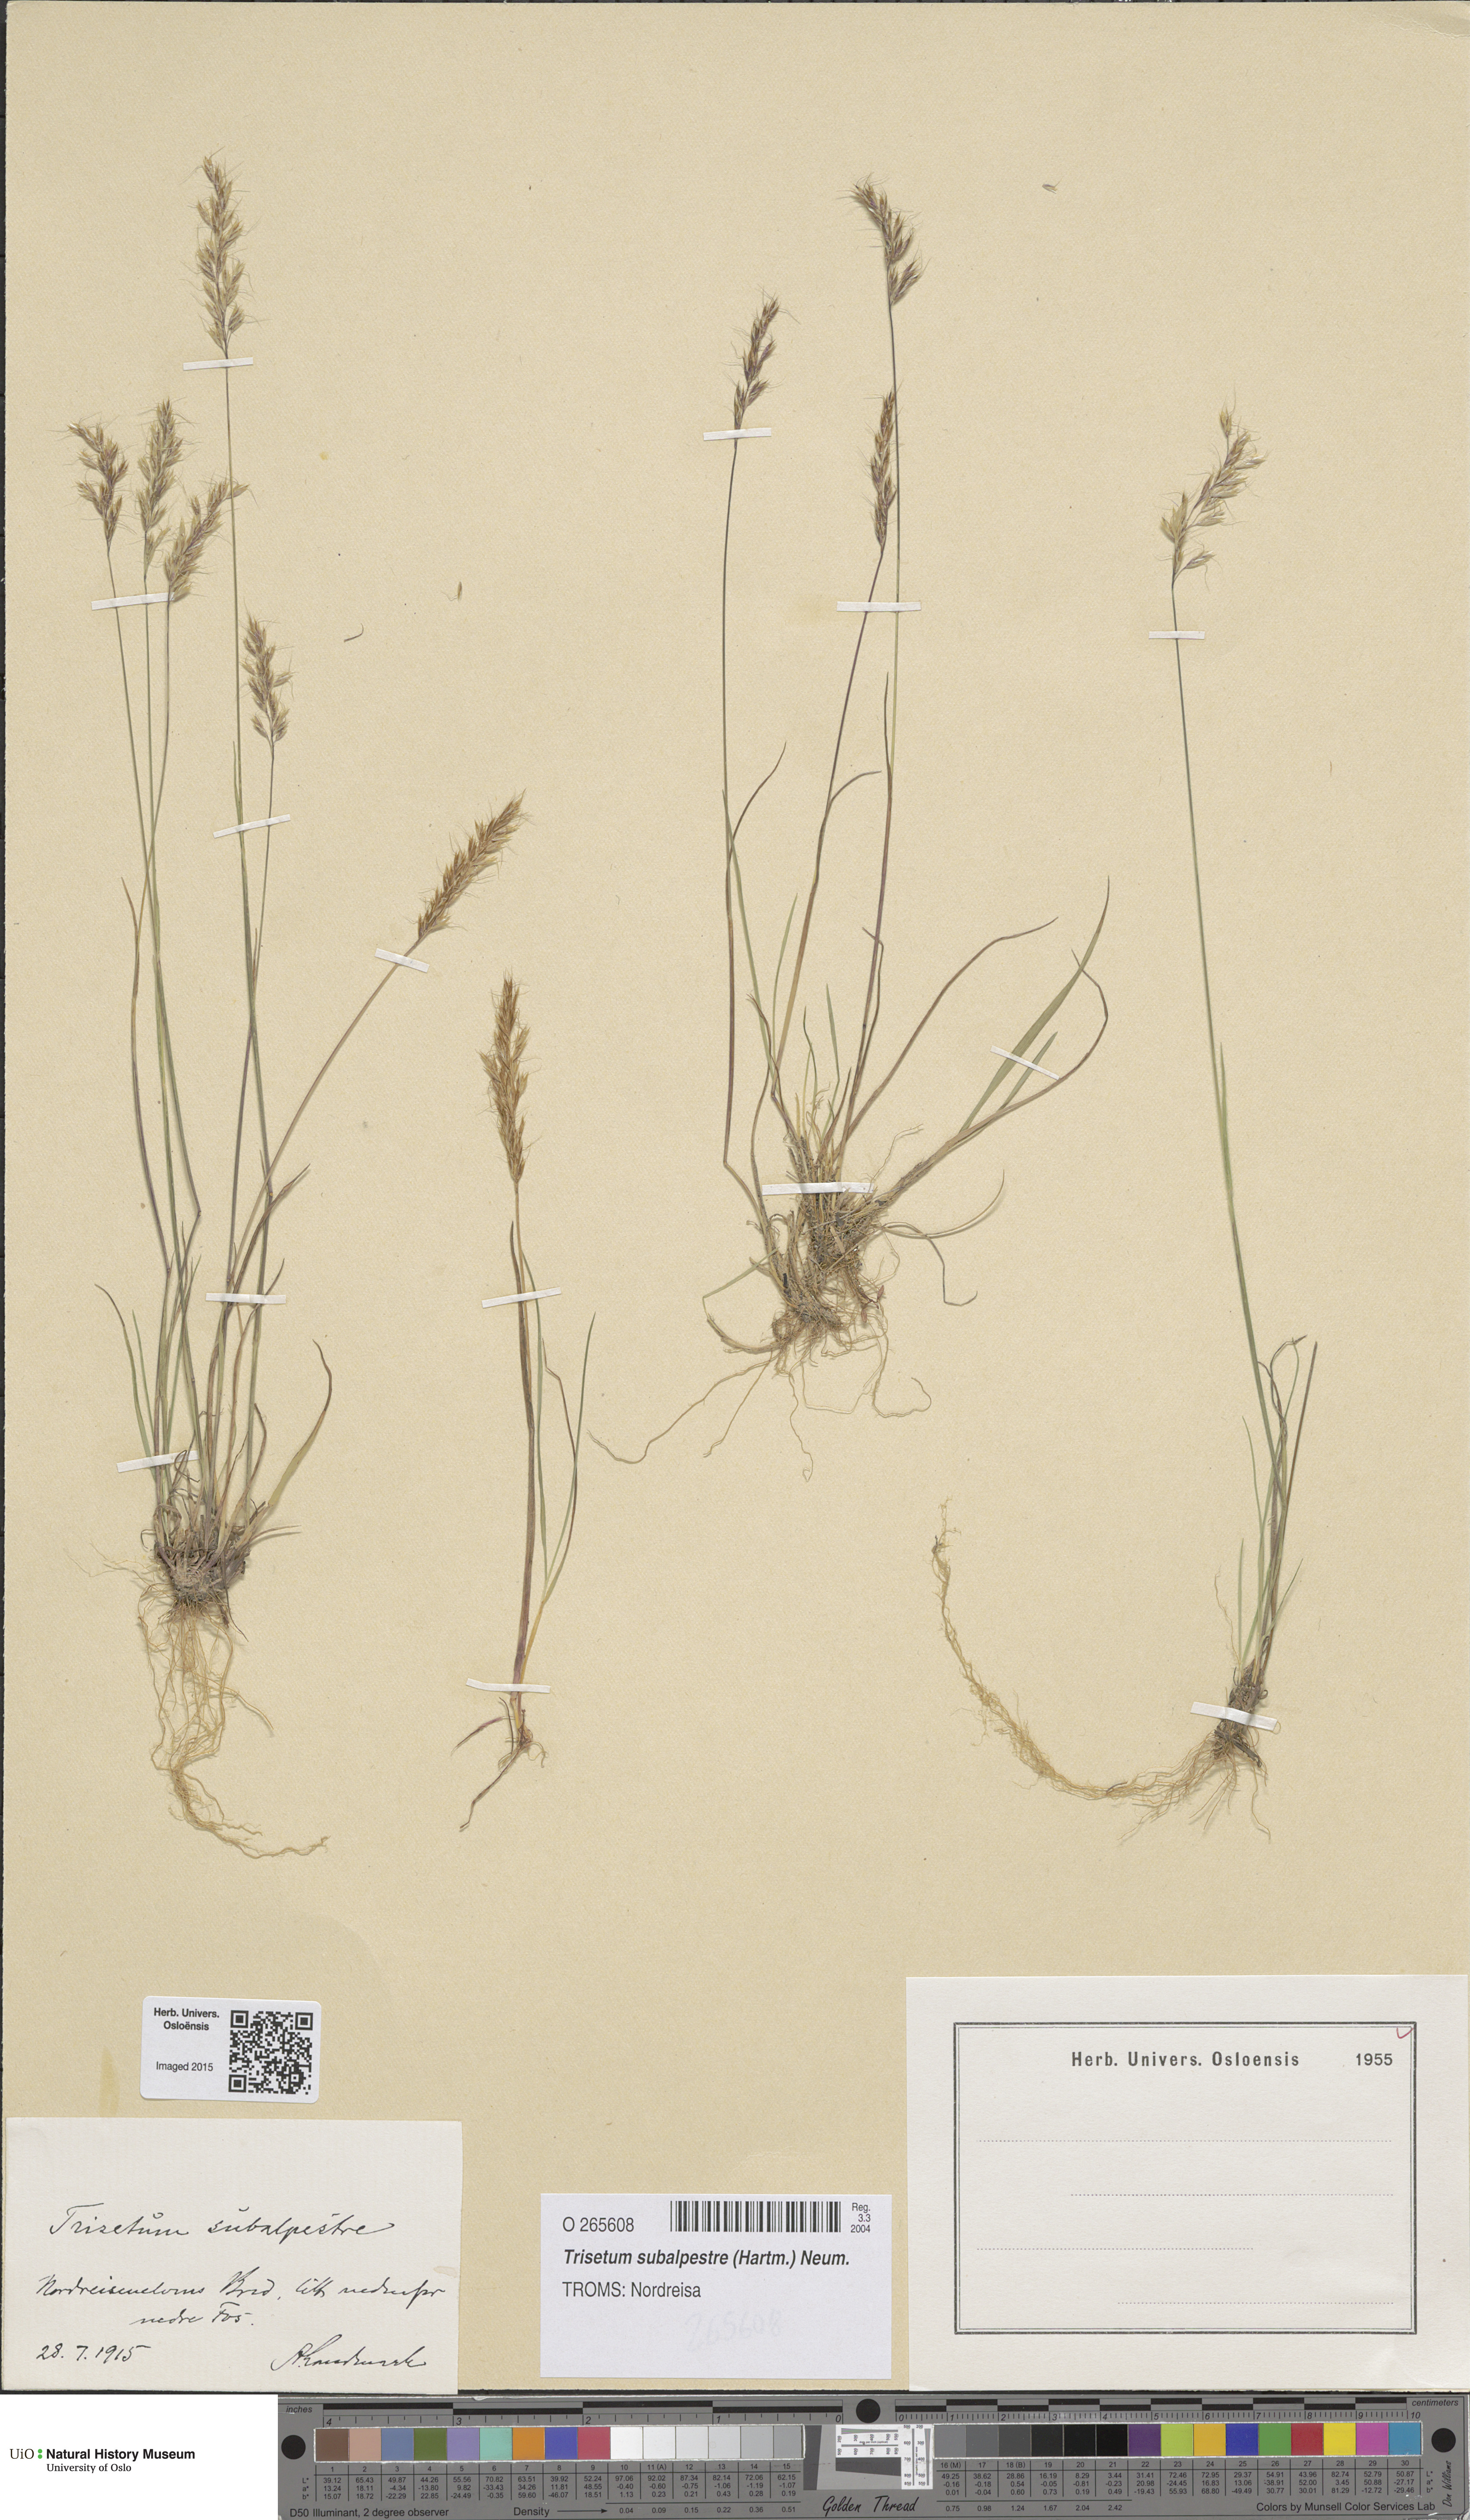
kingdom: Plantae
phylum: Tracheophyta
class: Liliopsida
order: Poales
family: Poaceae
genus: Koeleria
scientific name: Koeleria subalpestris
